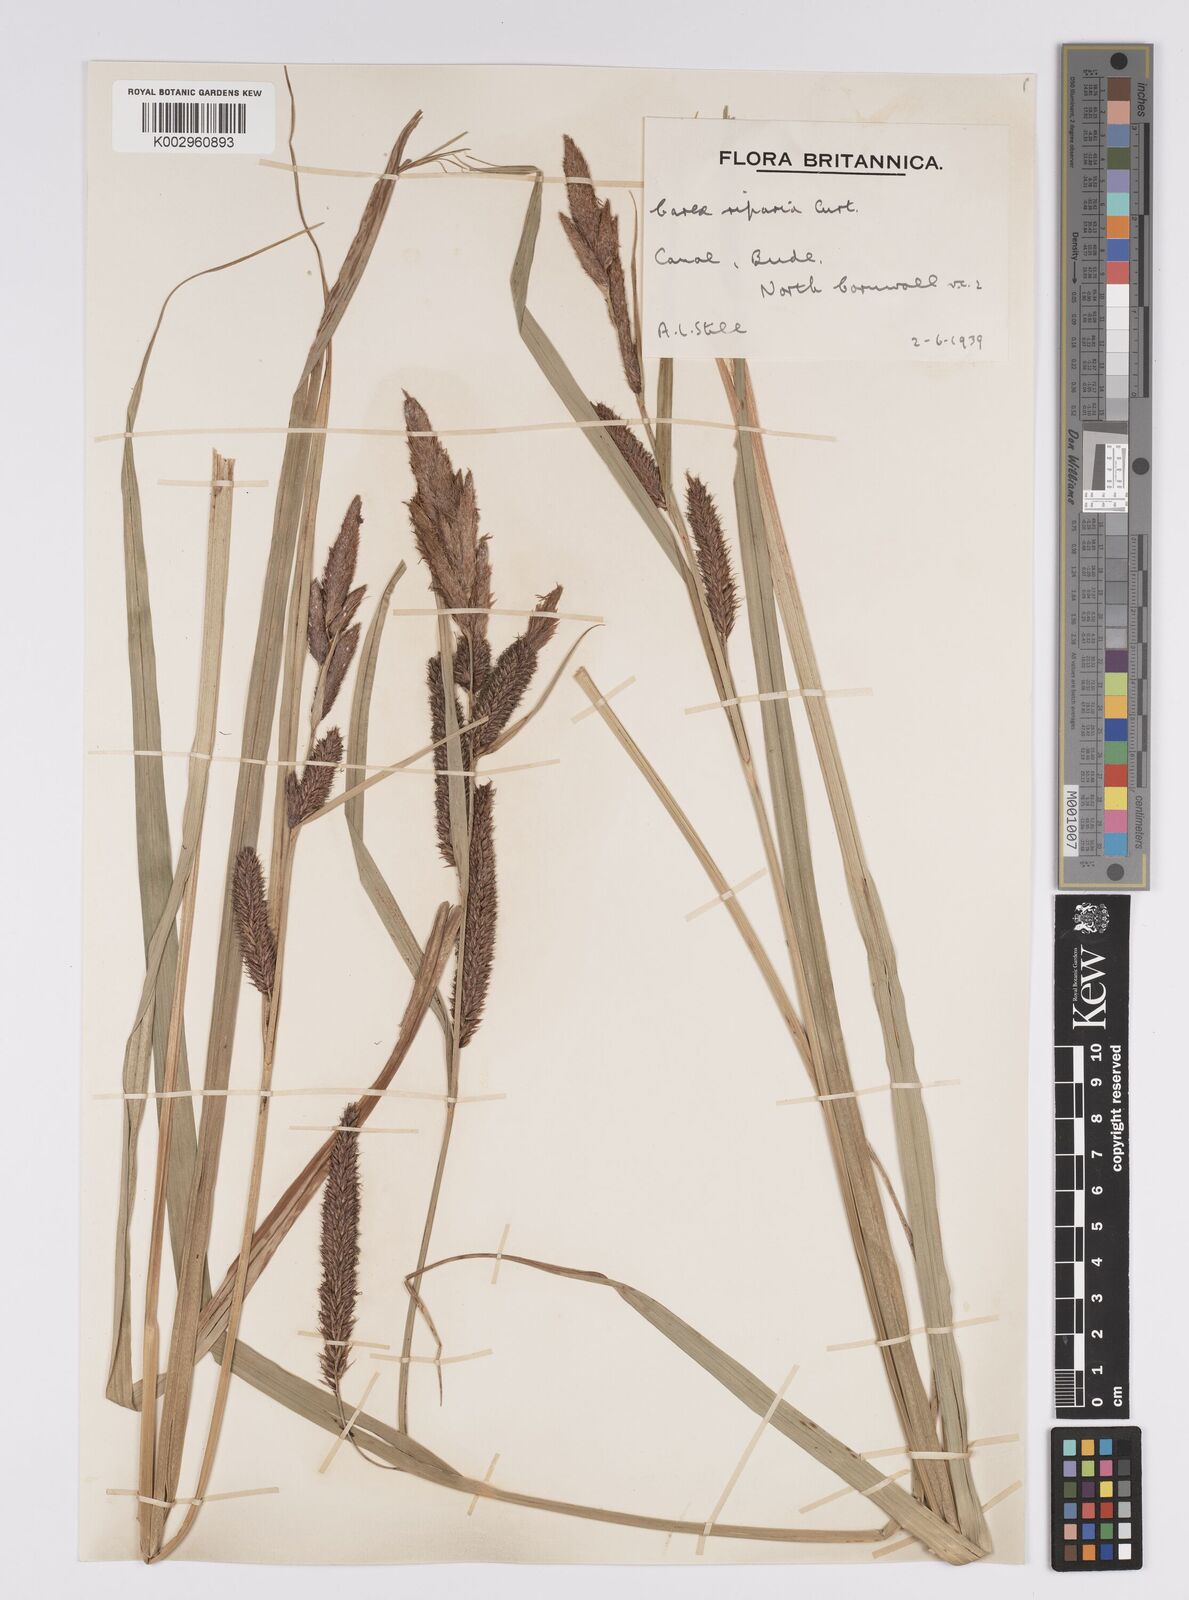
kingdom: Plantae
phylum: Tracheophyta
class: Liliopsida
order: Poales
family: Cyperaceae
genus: Carex
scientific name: Carex riparia
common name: Greater pond-sedge
